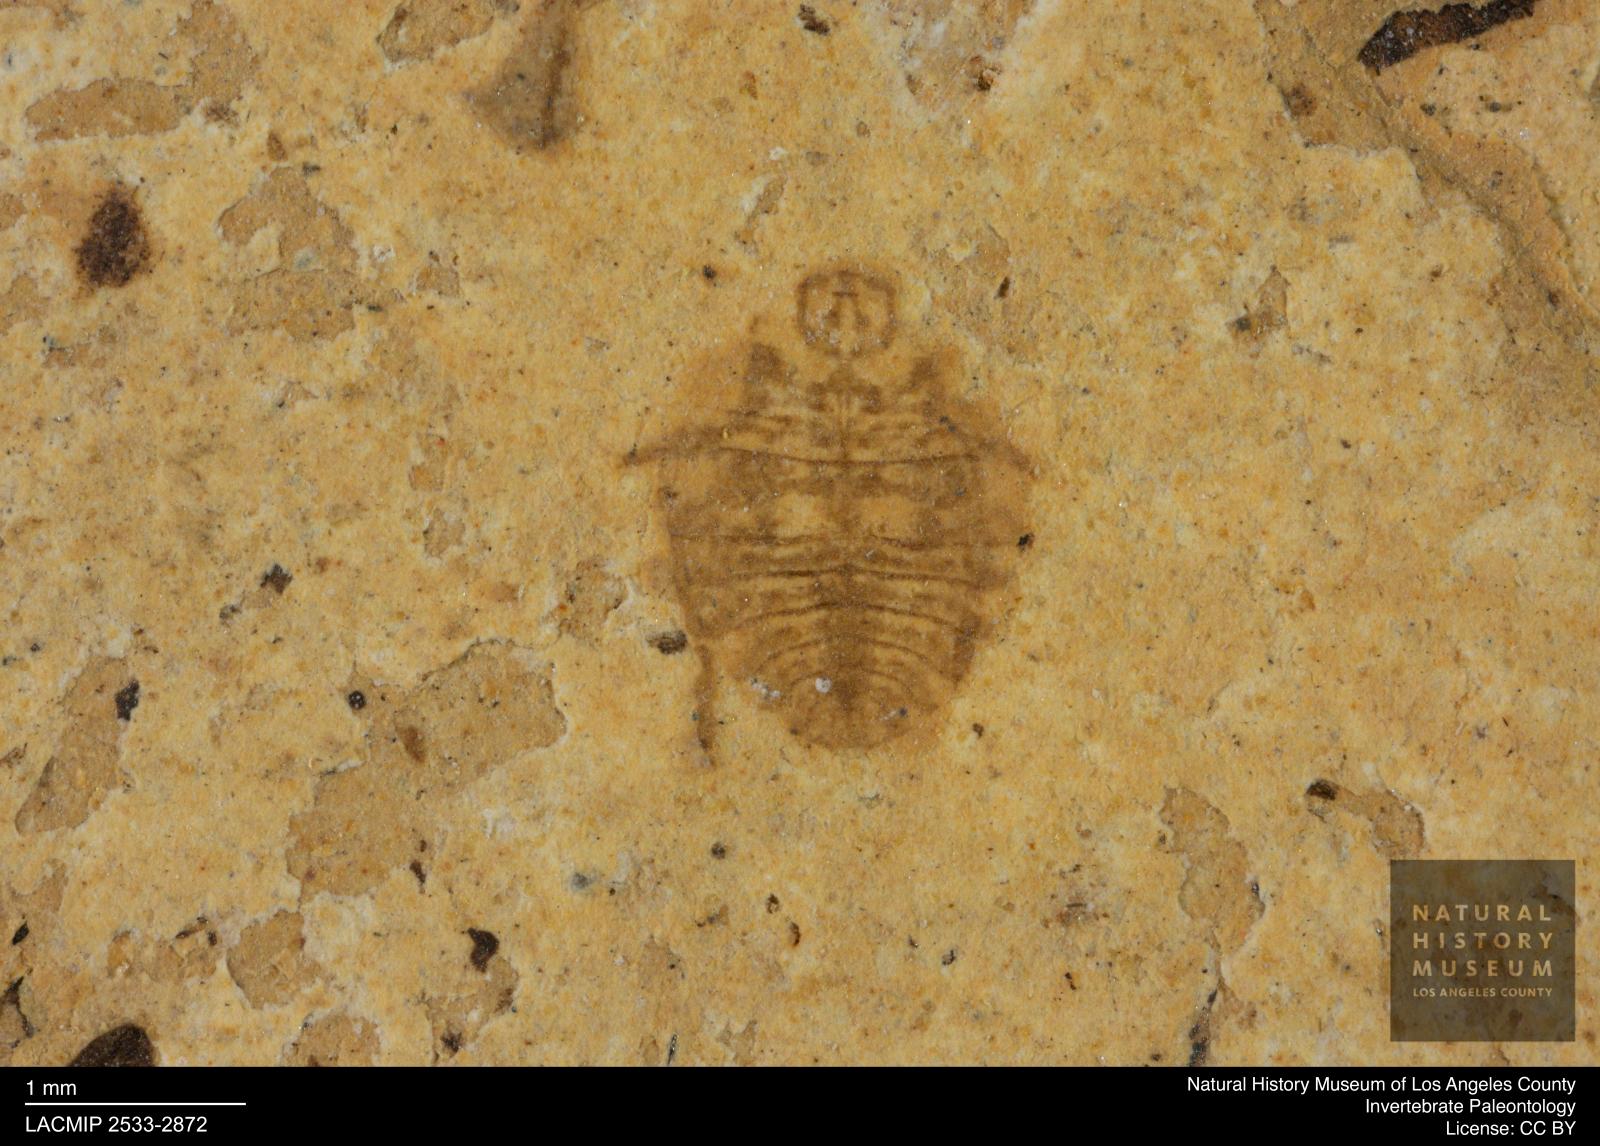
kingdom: Animalia
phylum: Arthropoda
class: Insecta
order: Hemiptera
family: Naucoridae
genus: Naucoris
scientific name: Naucoris rottensis
